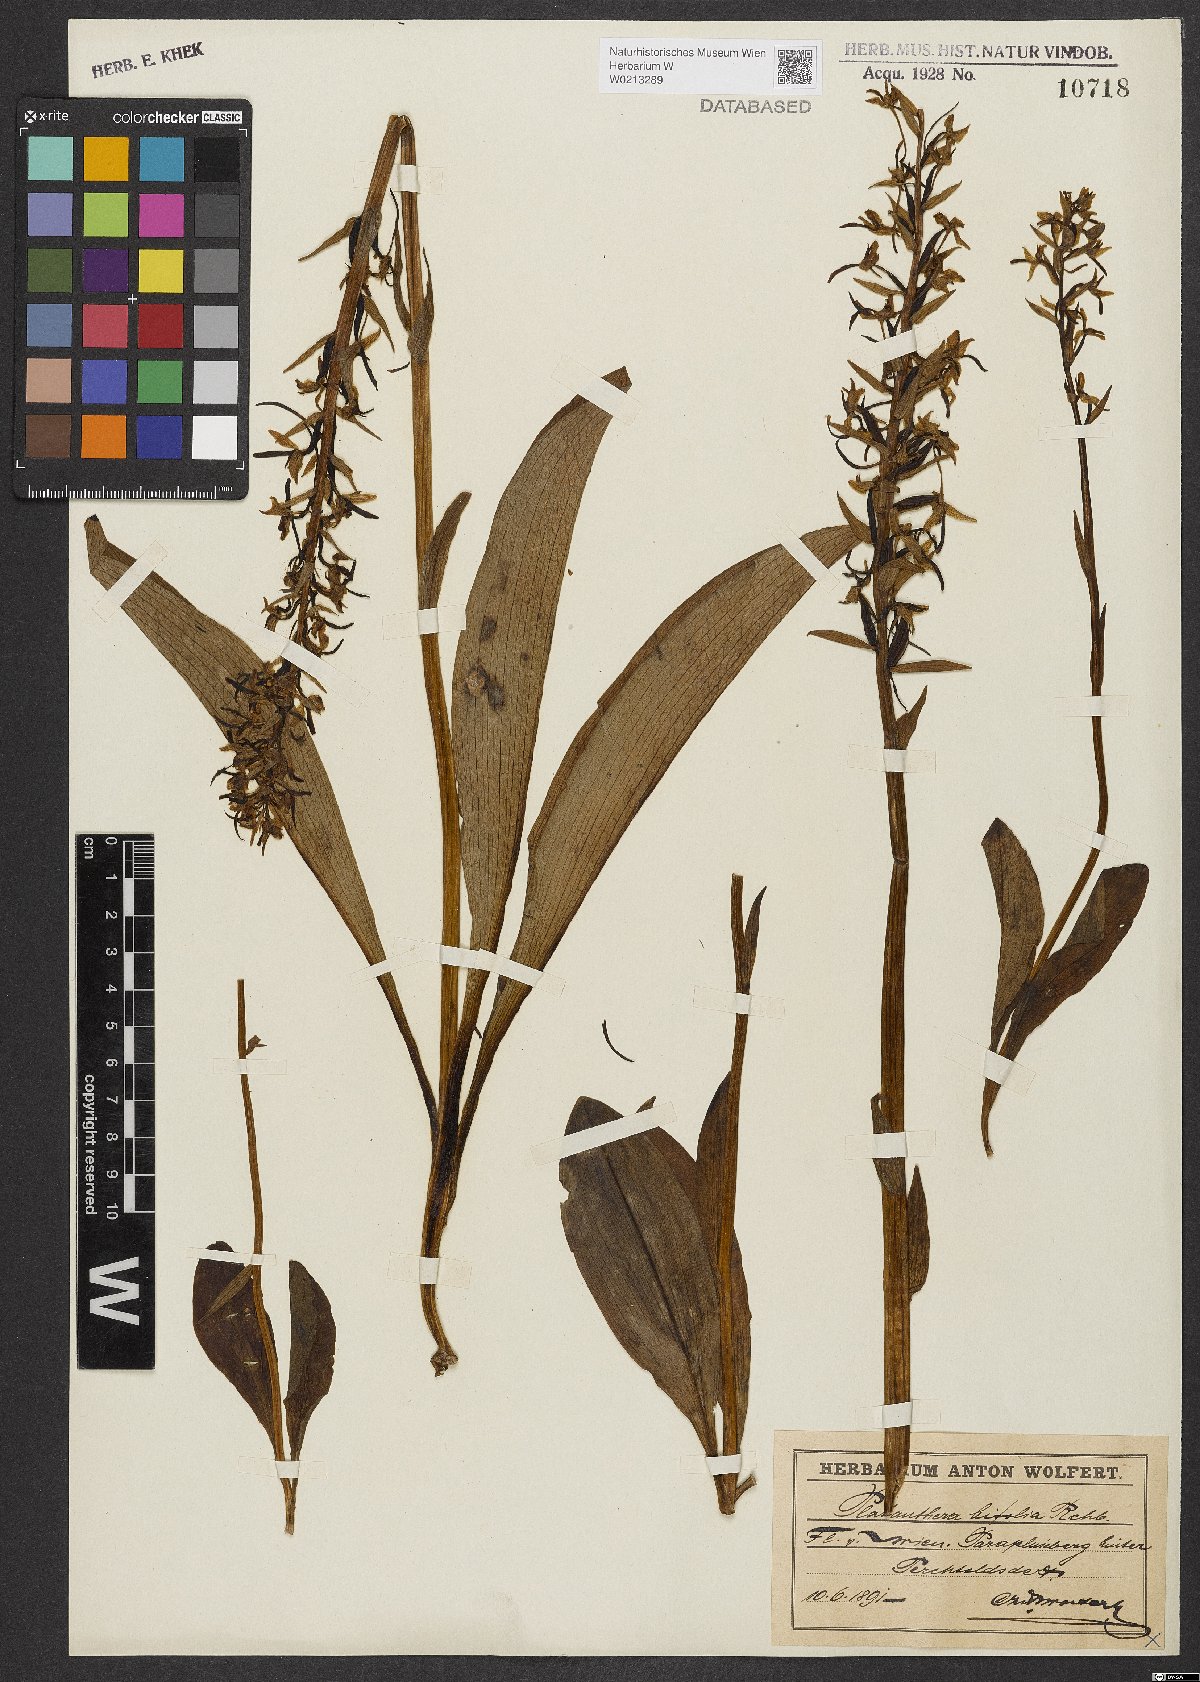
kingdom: Plantae
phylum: Tracheophyta
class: Liliopsida
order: Asparagales
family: Orchidaceae
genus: Platanthera
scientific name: Platanthera bifolia
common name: Lesser butterfly-orchid
